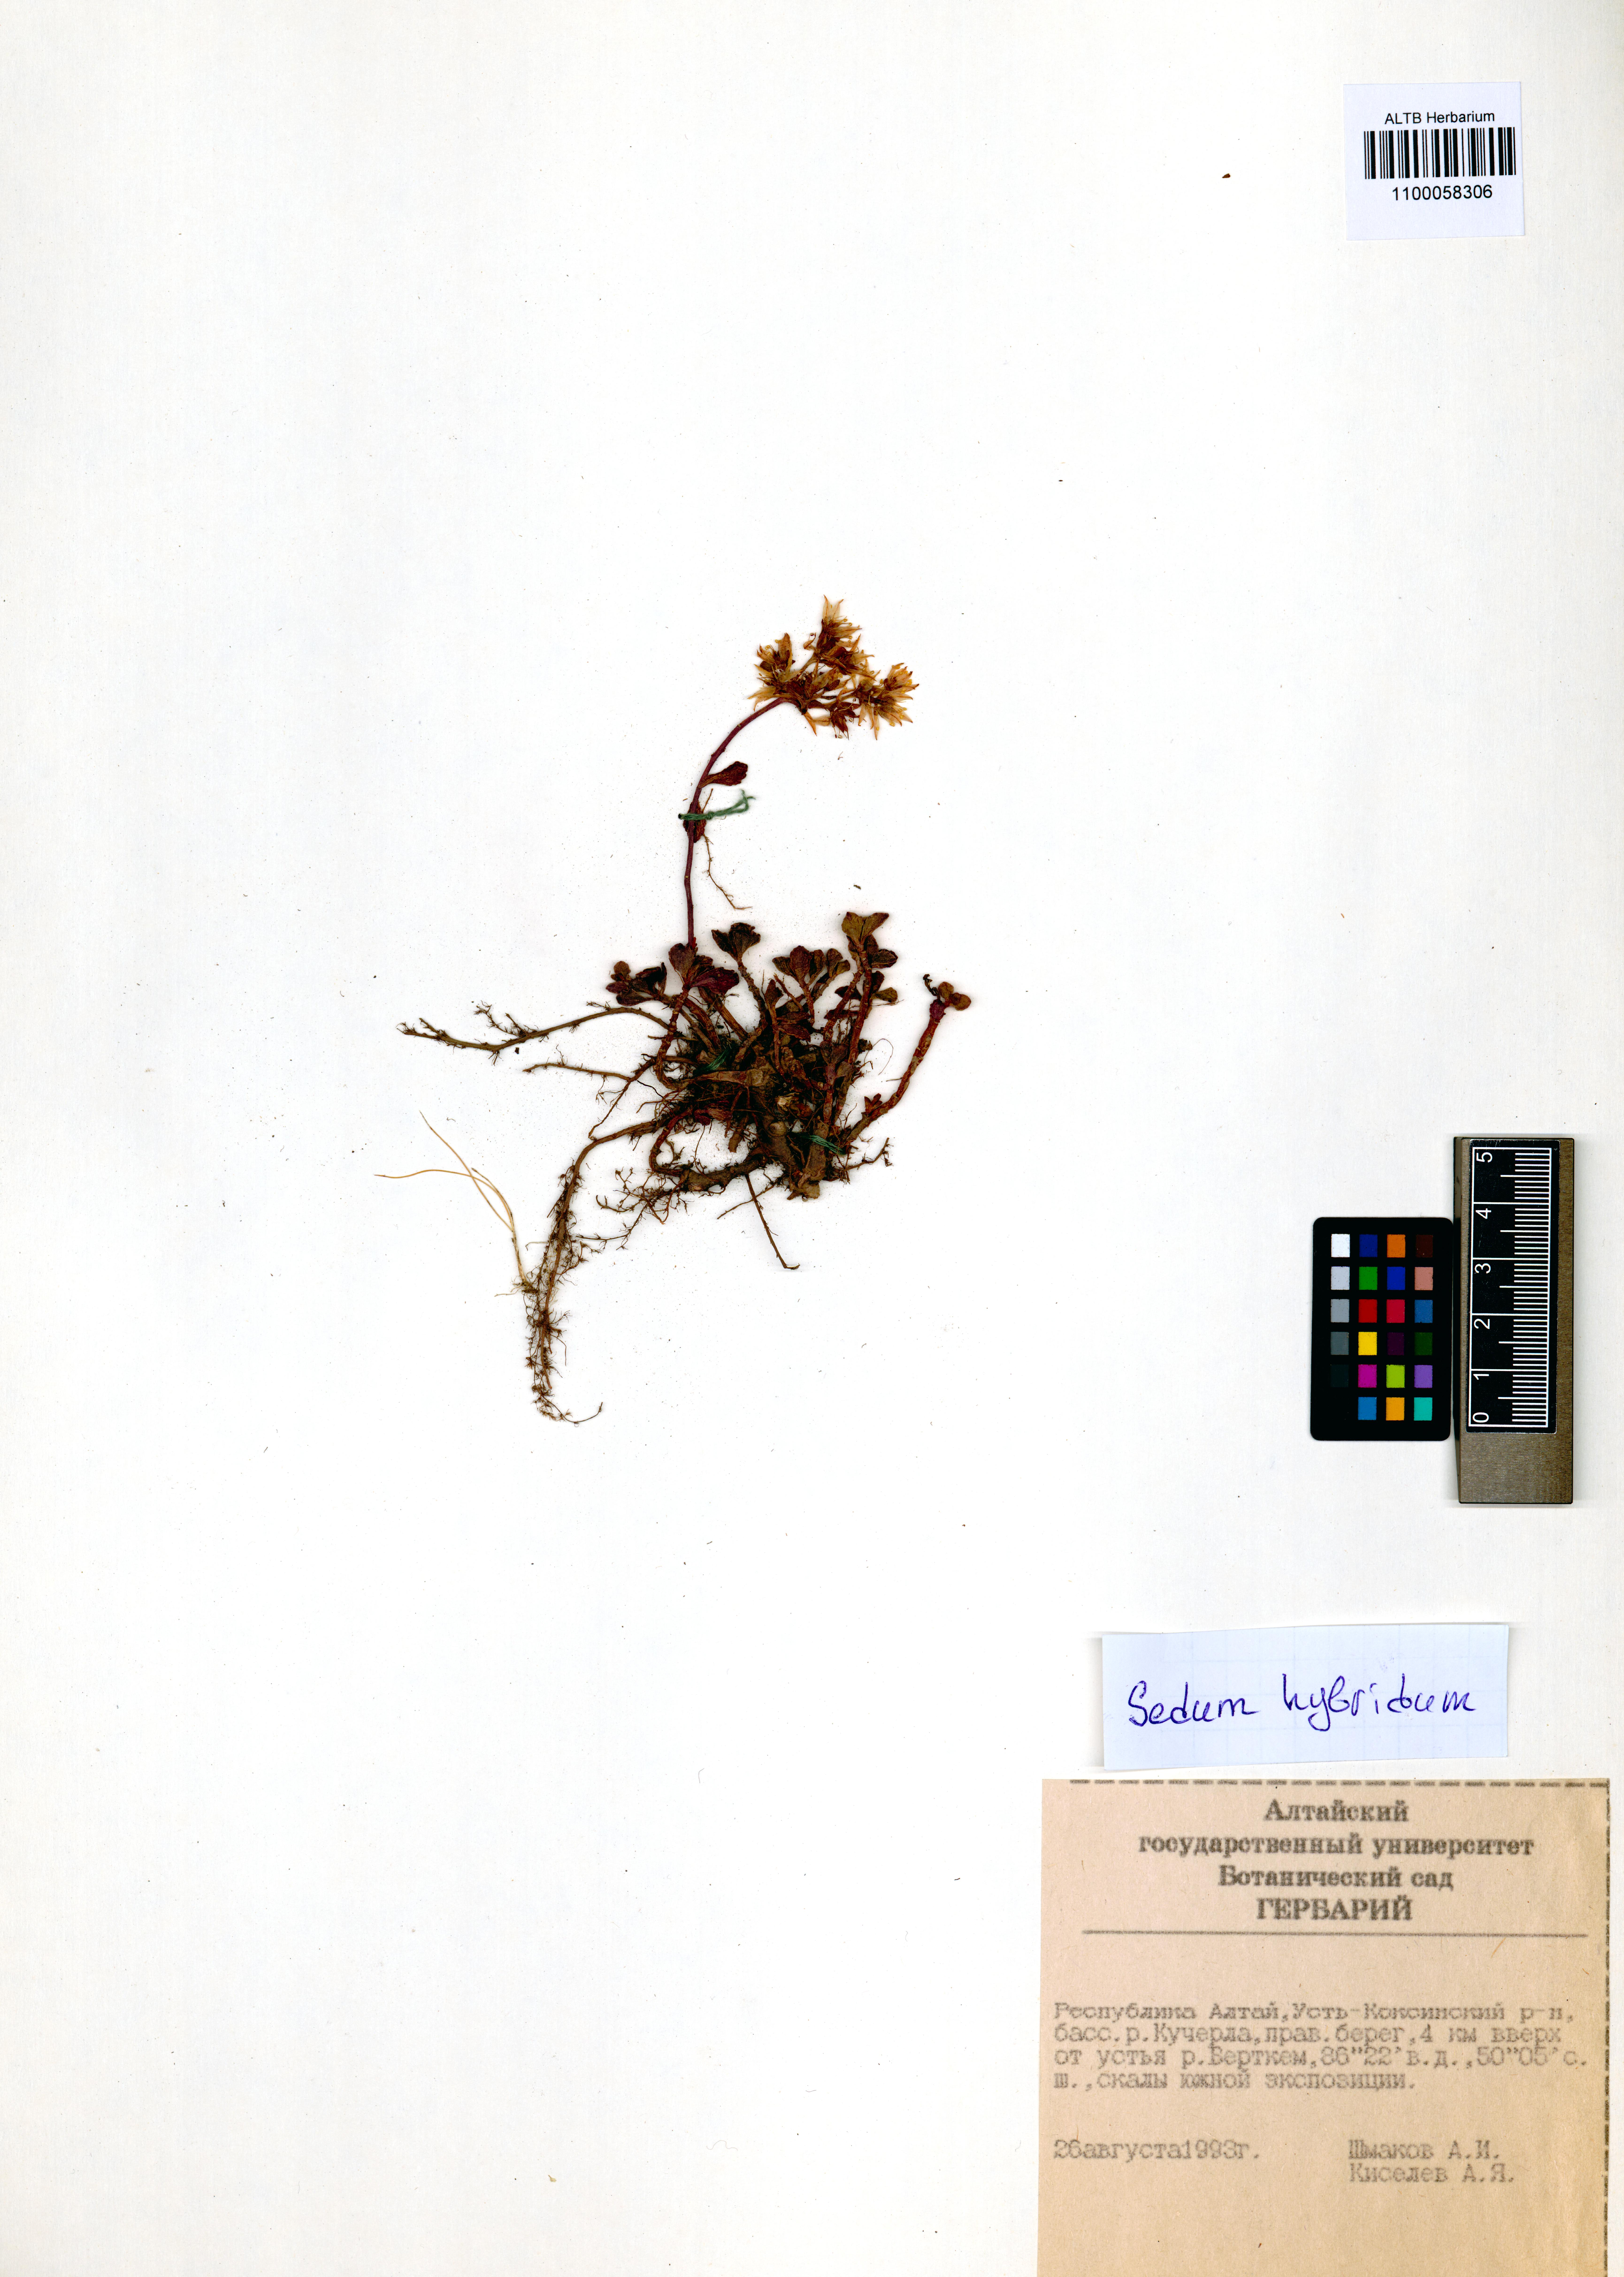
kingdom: Plantae
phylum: Tracheophyta
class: Magnoliopsida
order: Saxifragales
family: Crassulaceae
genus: Phedimus
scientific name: Phedimus hybridus
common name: Hybrid stonecrop
